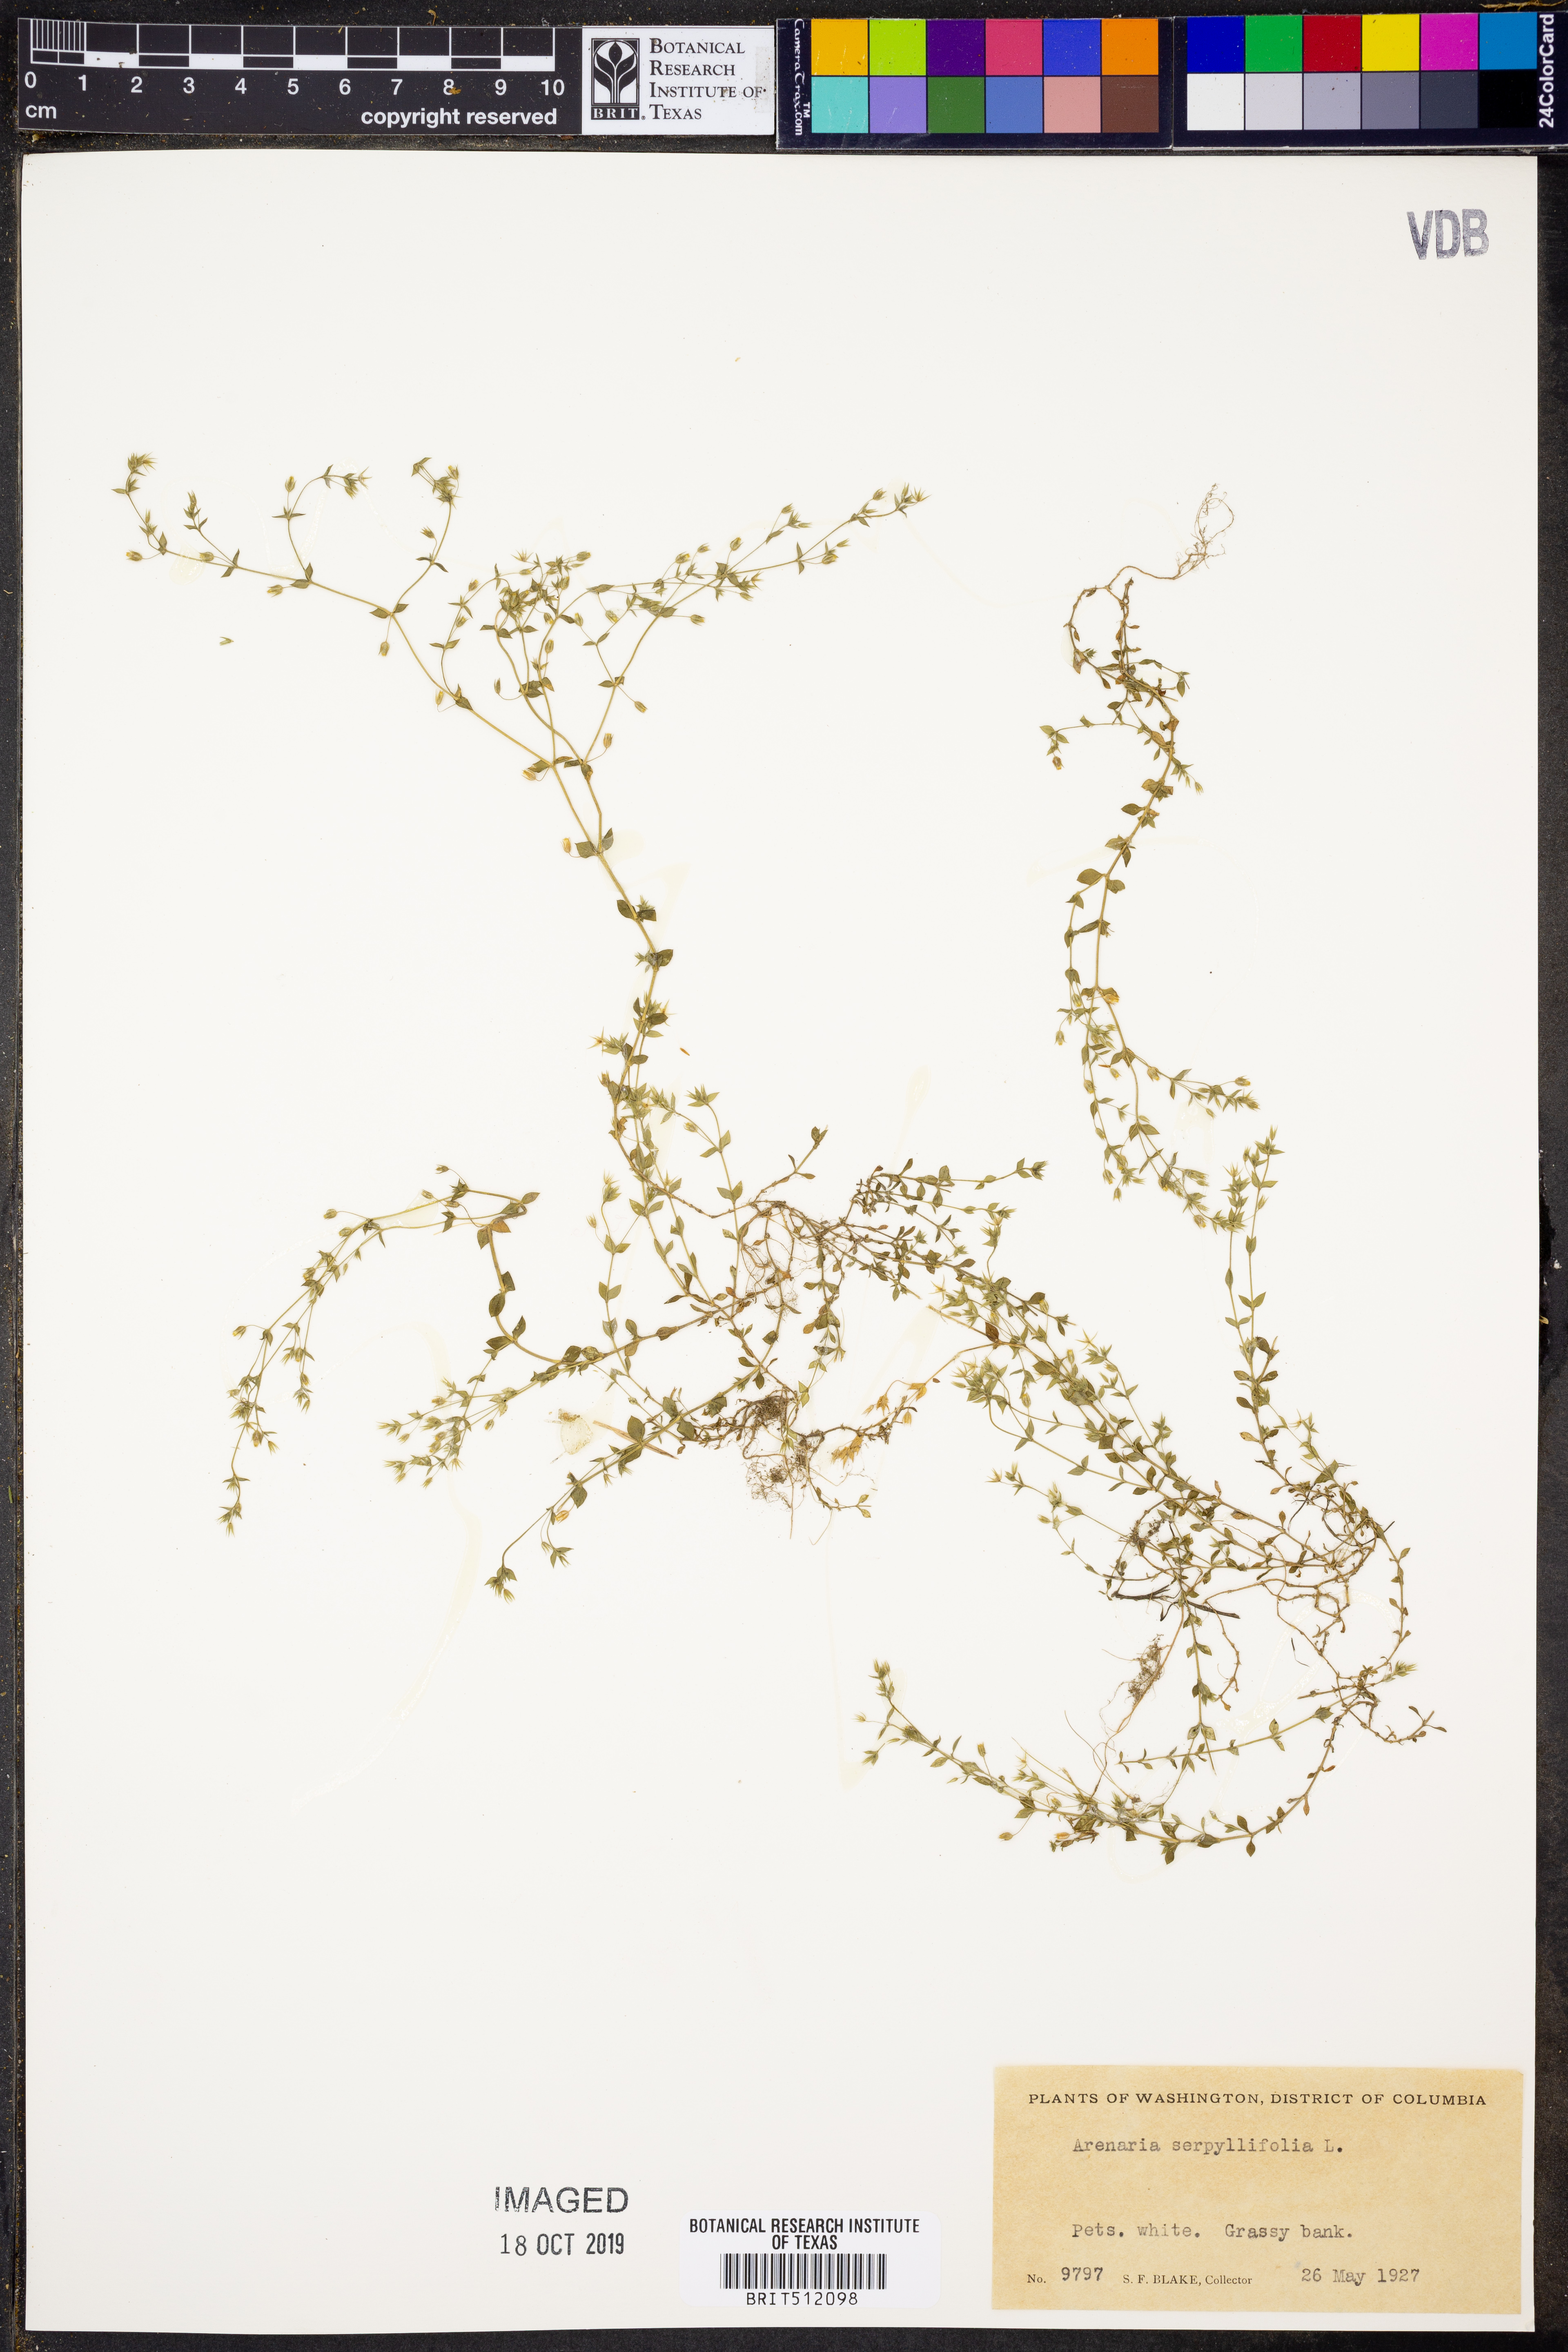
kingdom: Plantae
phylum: Tracheophyta
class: Magnoliopsida
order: Caryophyllales
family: Caryophyllaceae
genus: Arenaria
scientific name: Arenaria serpyllifolia
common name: Thyme-leaved sandwort
